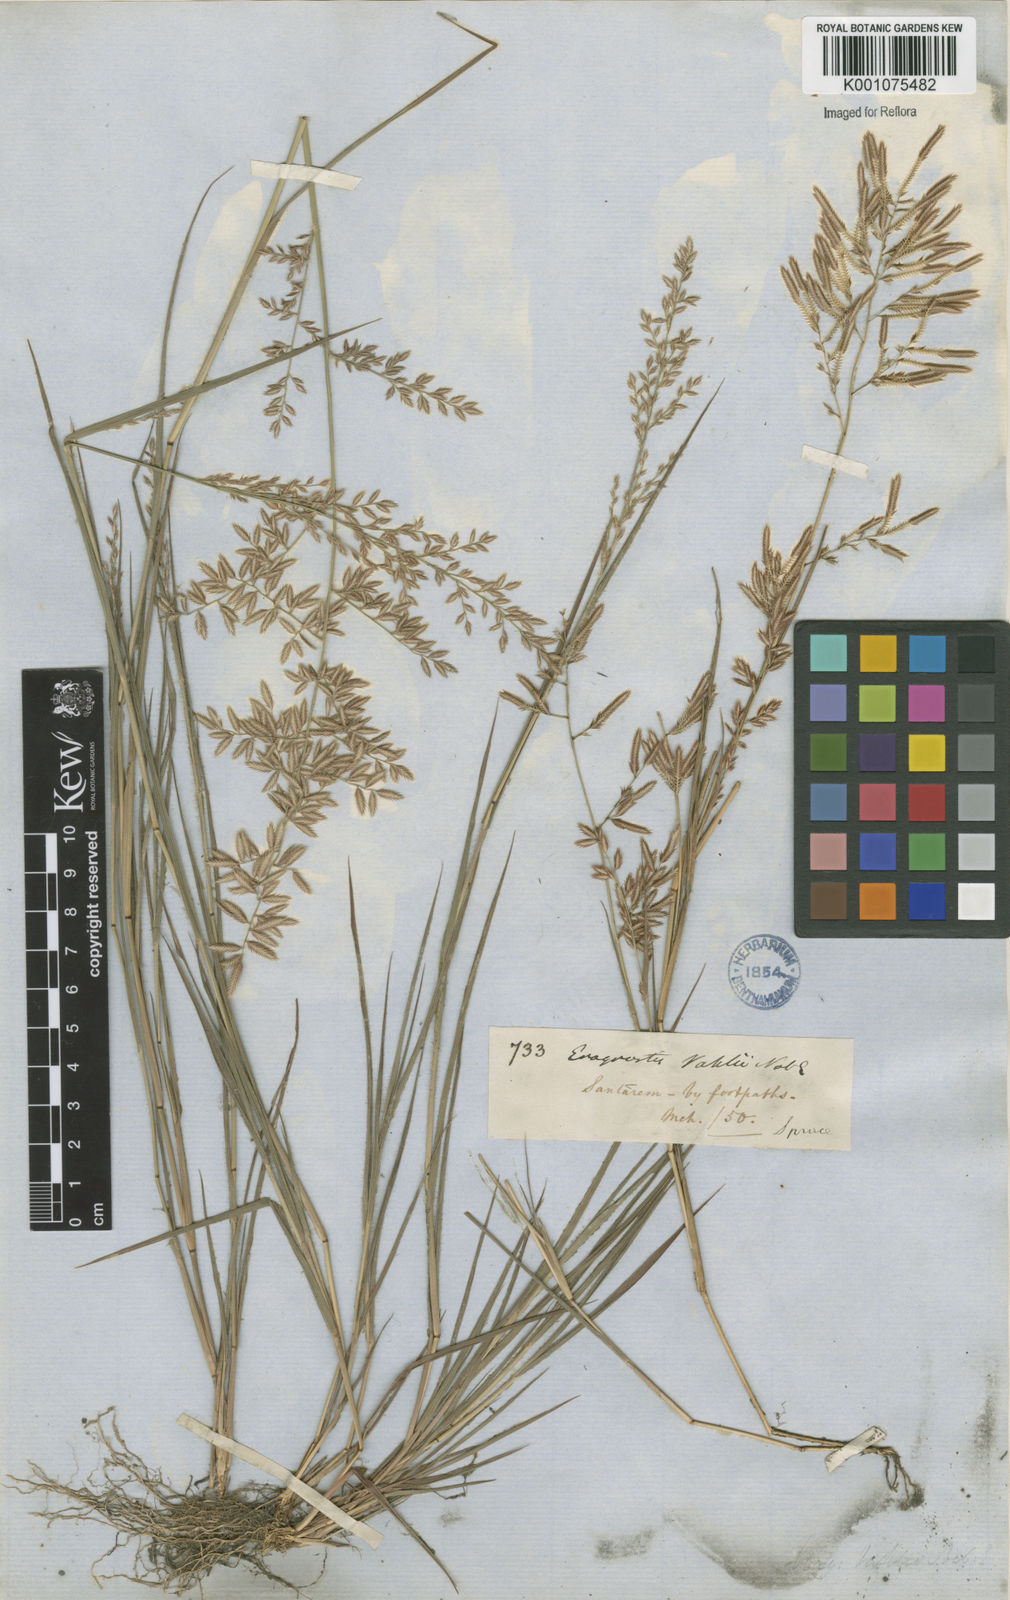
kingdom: Plantae
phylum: Tracheophyta
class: Liliopsida
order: Poales
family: Poaceae
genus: Eragrostis
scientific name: Eragrostis maypurensis
